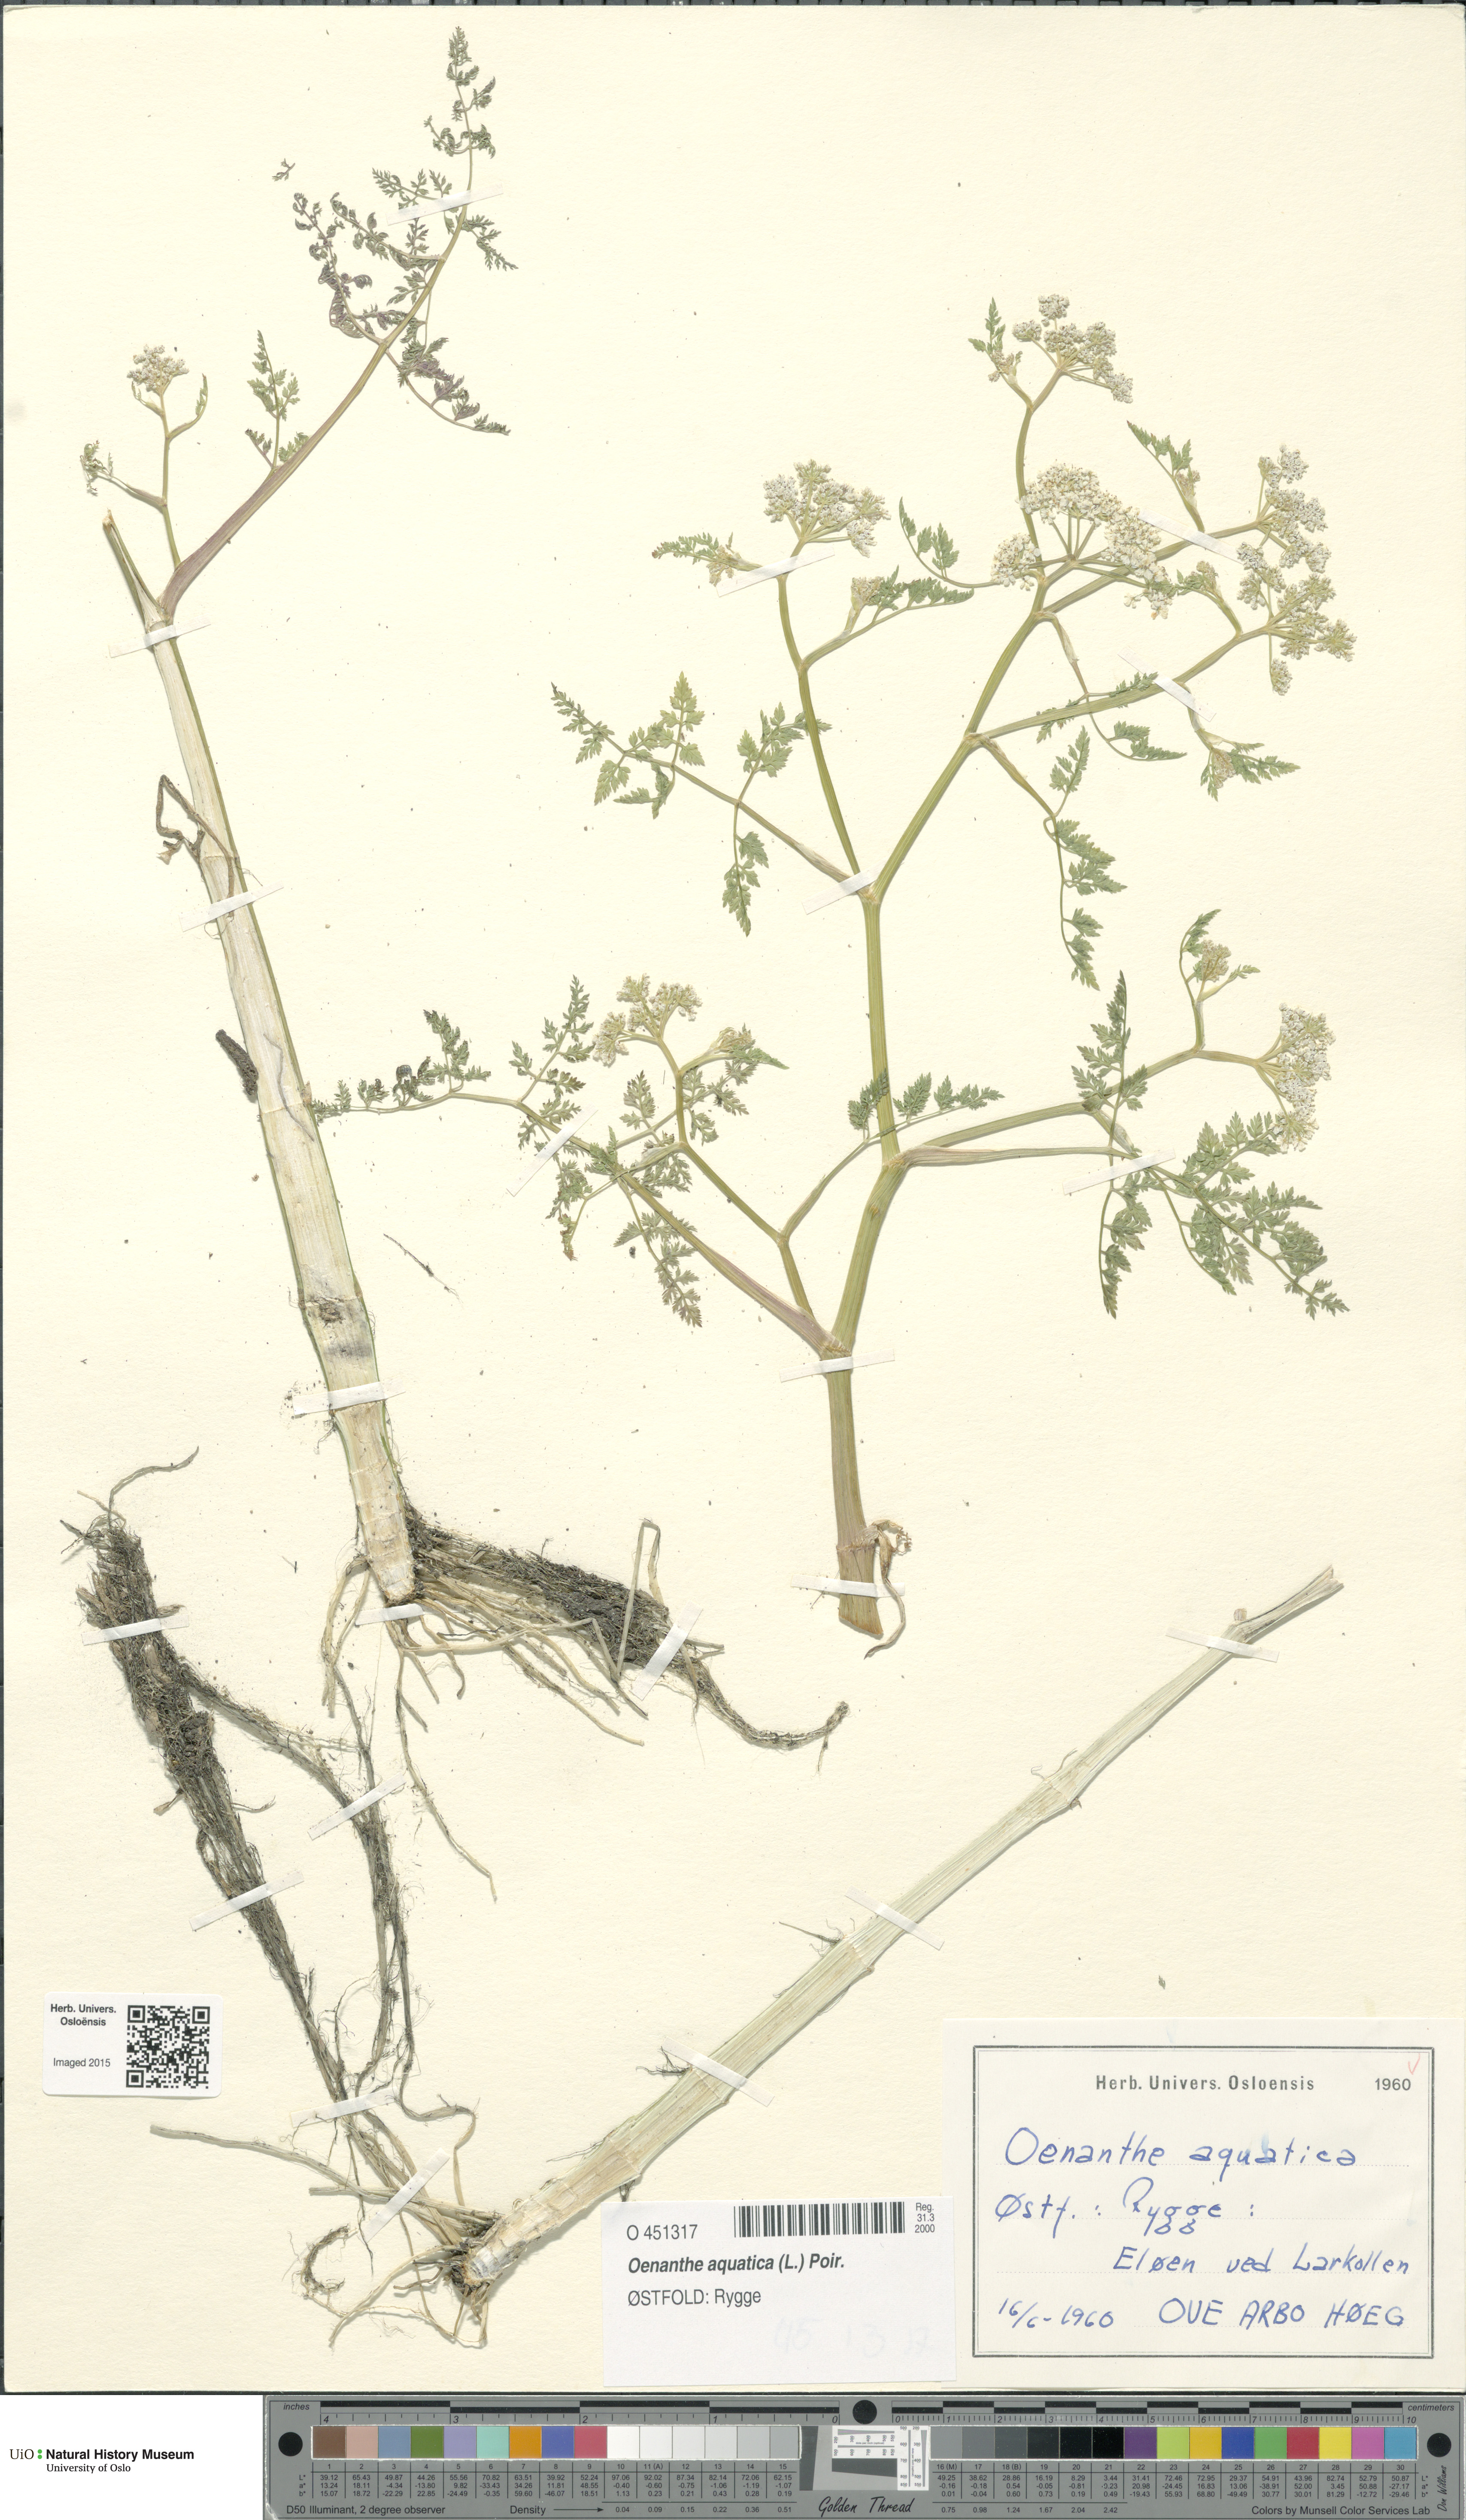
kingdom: Plantae
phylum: Tracheophyta
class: Magnoliopsida
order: Apiales
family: Apiaceae
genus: Oenanthe
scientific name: Oenanthe aquatica
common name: Fine-leaved water-dropwort
